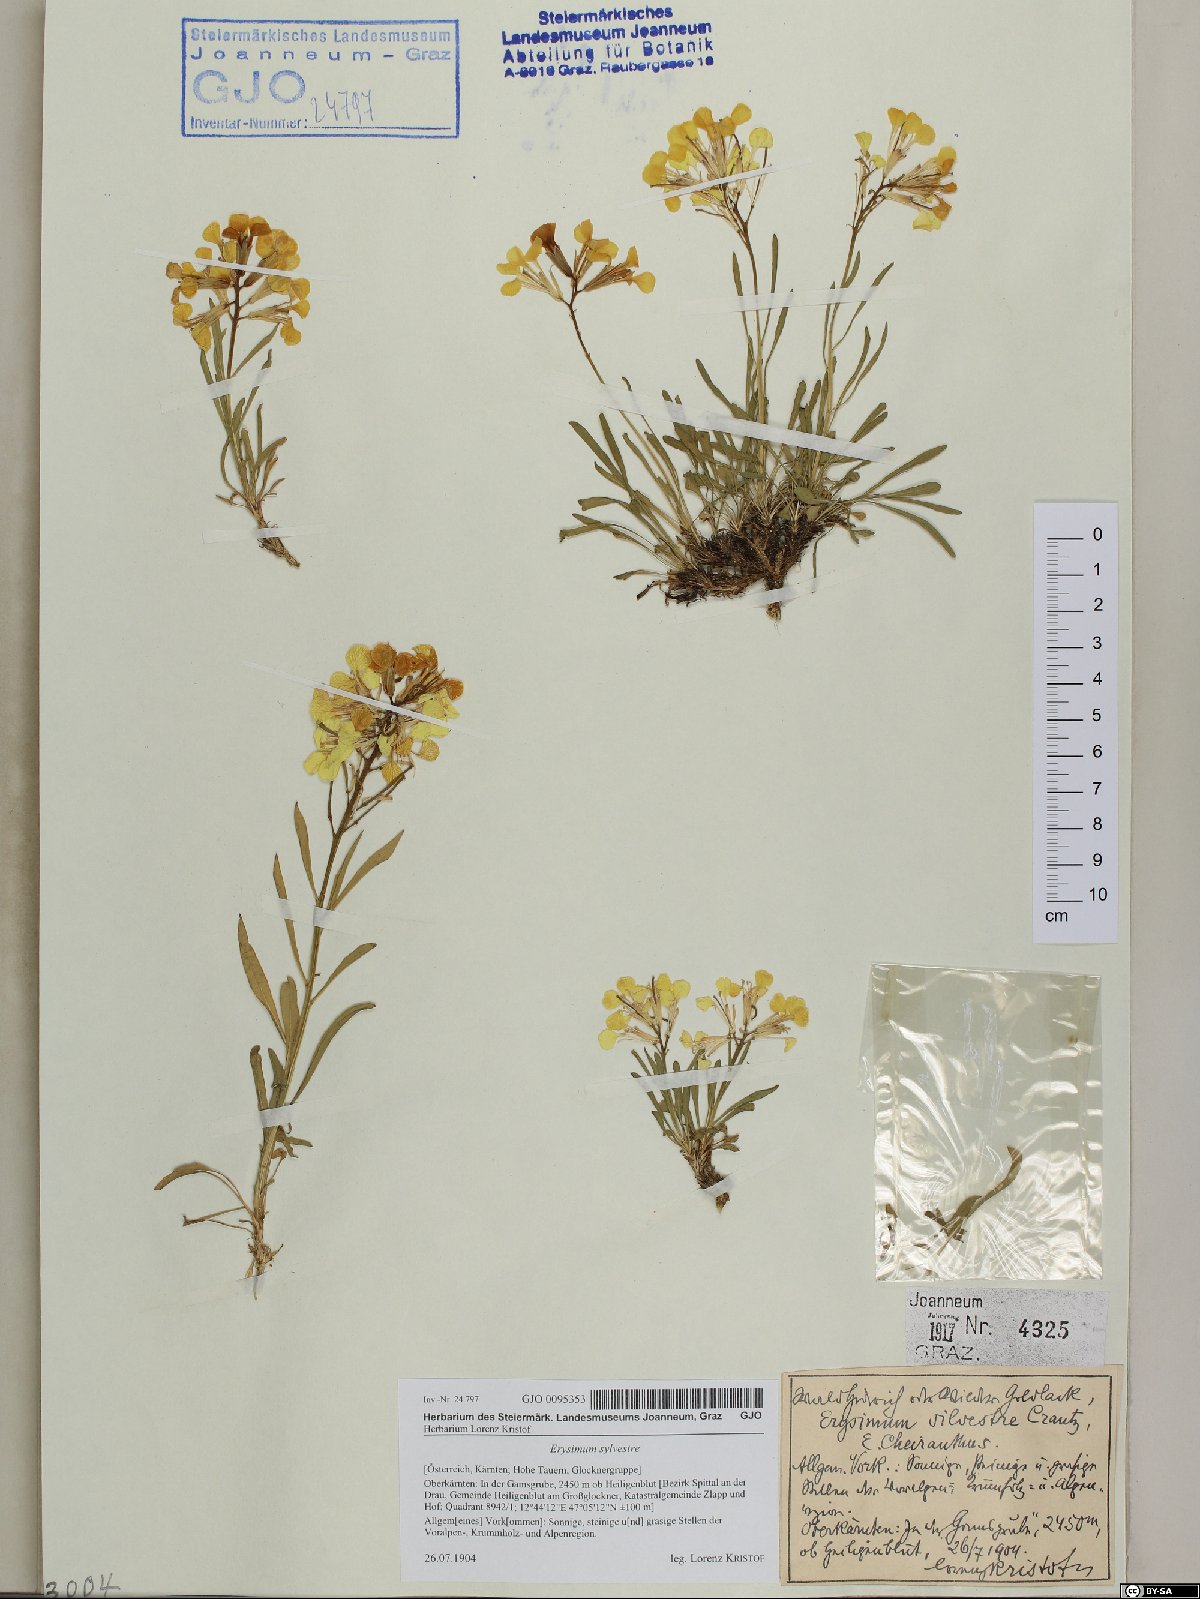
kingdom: Plantae
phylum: Tracheophyta
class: Magnoliopsida
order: Brassicales
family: Brassicaceae
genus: Erysimum
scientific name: Erysimum sylvestre
